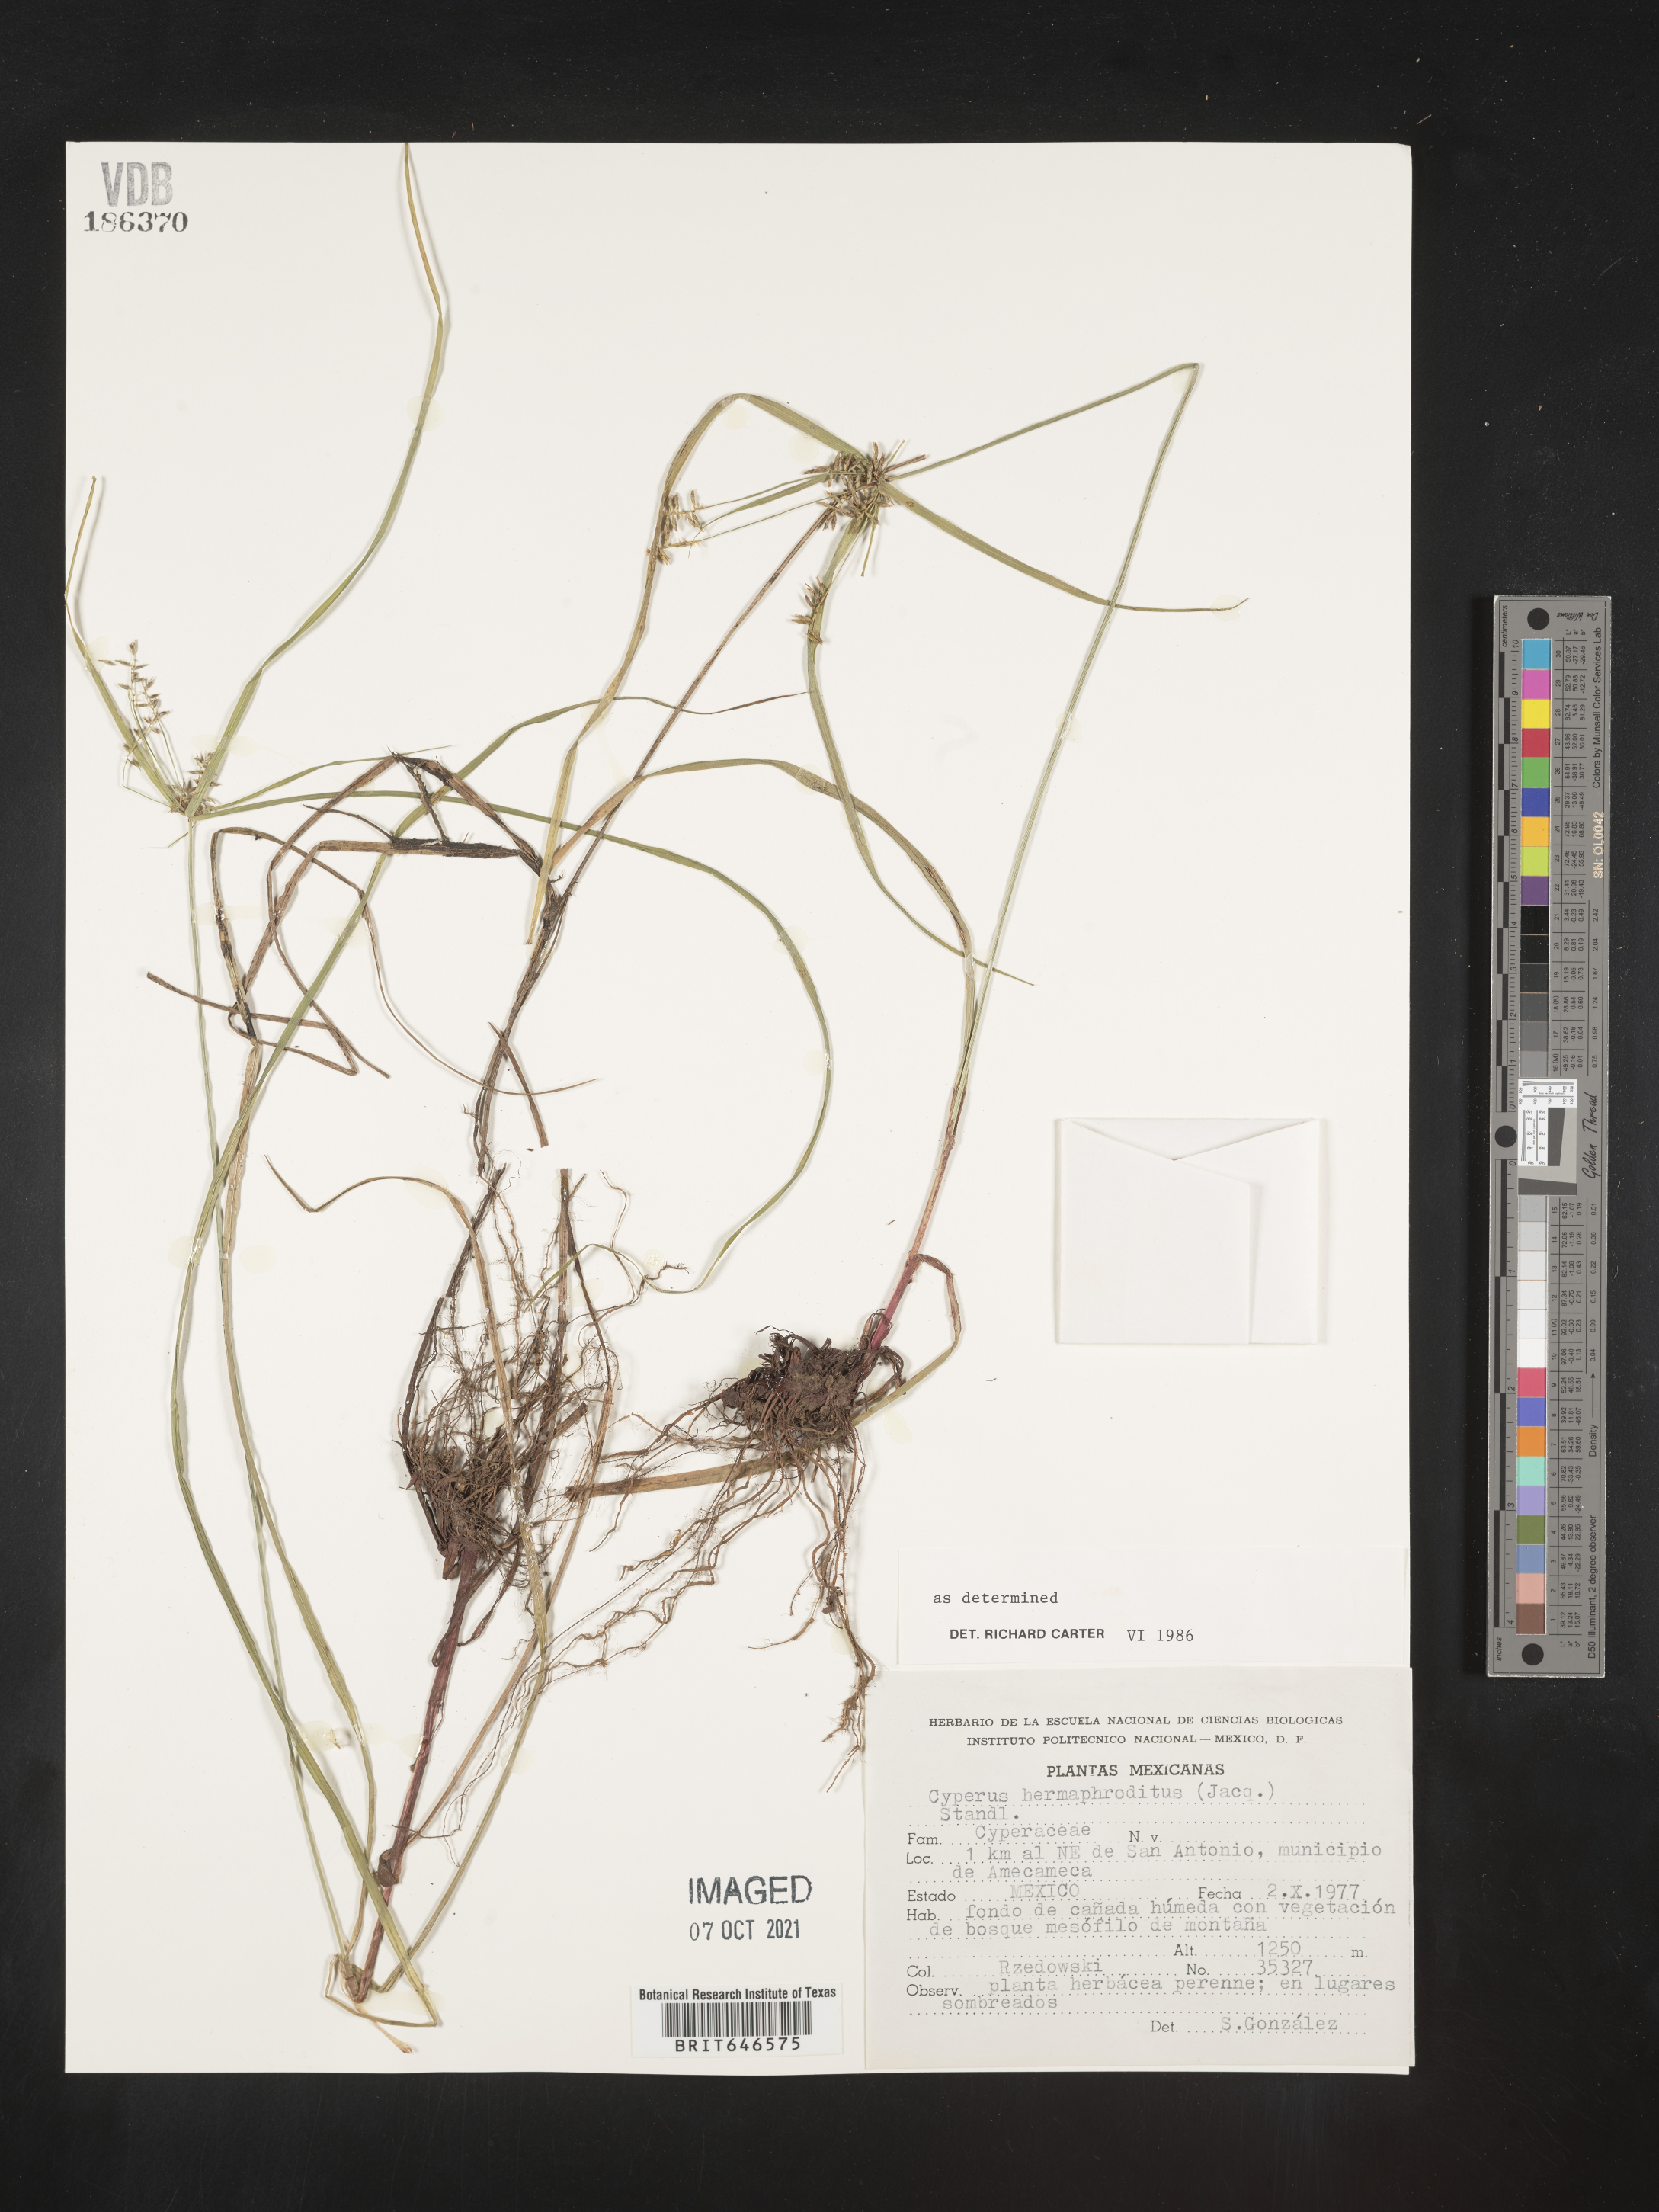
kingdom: Plantae
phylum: Tracheophyta
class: Liliopsida
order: Poales
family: Cyperaceae
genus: Cyperus
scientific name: Cyperus
